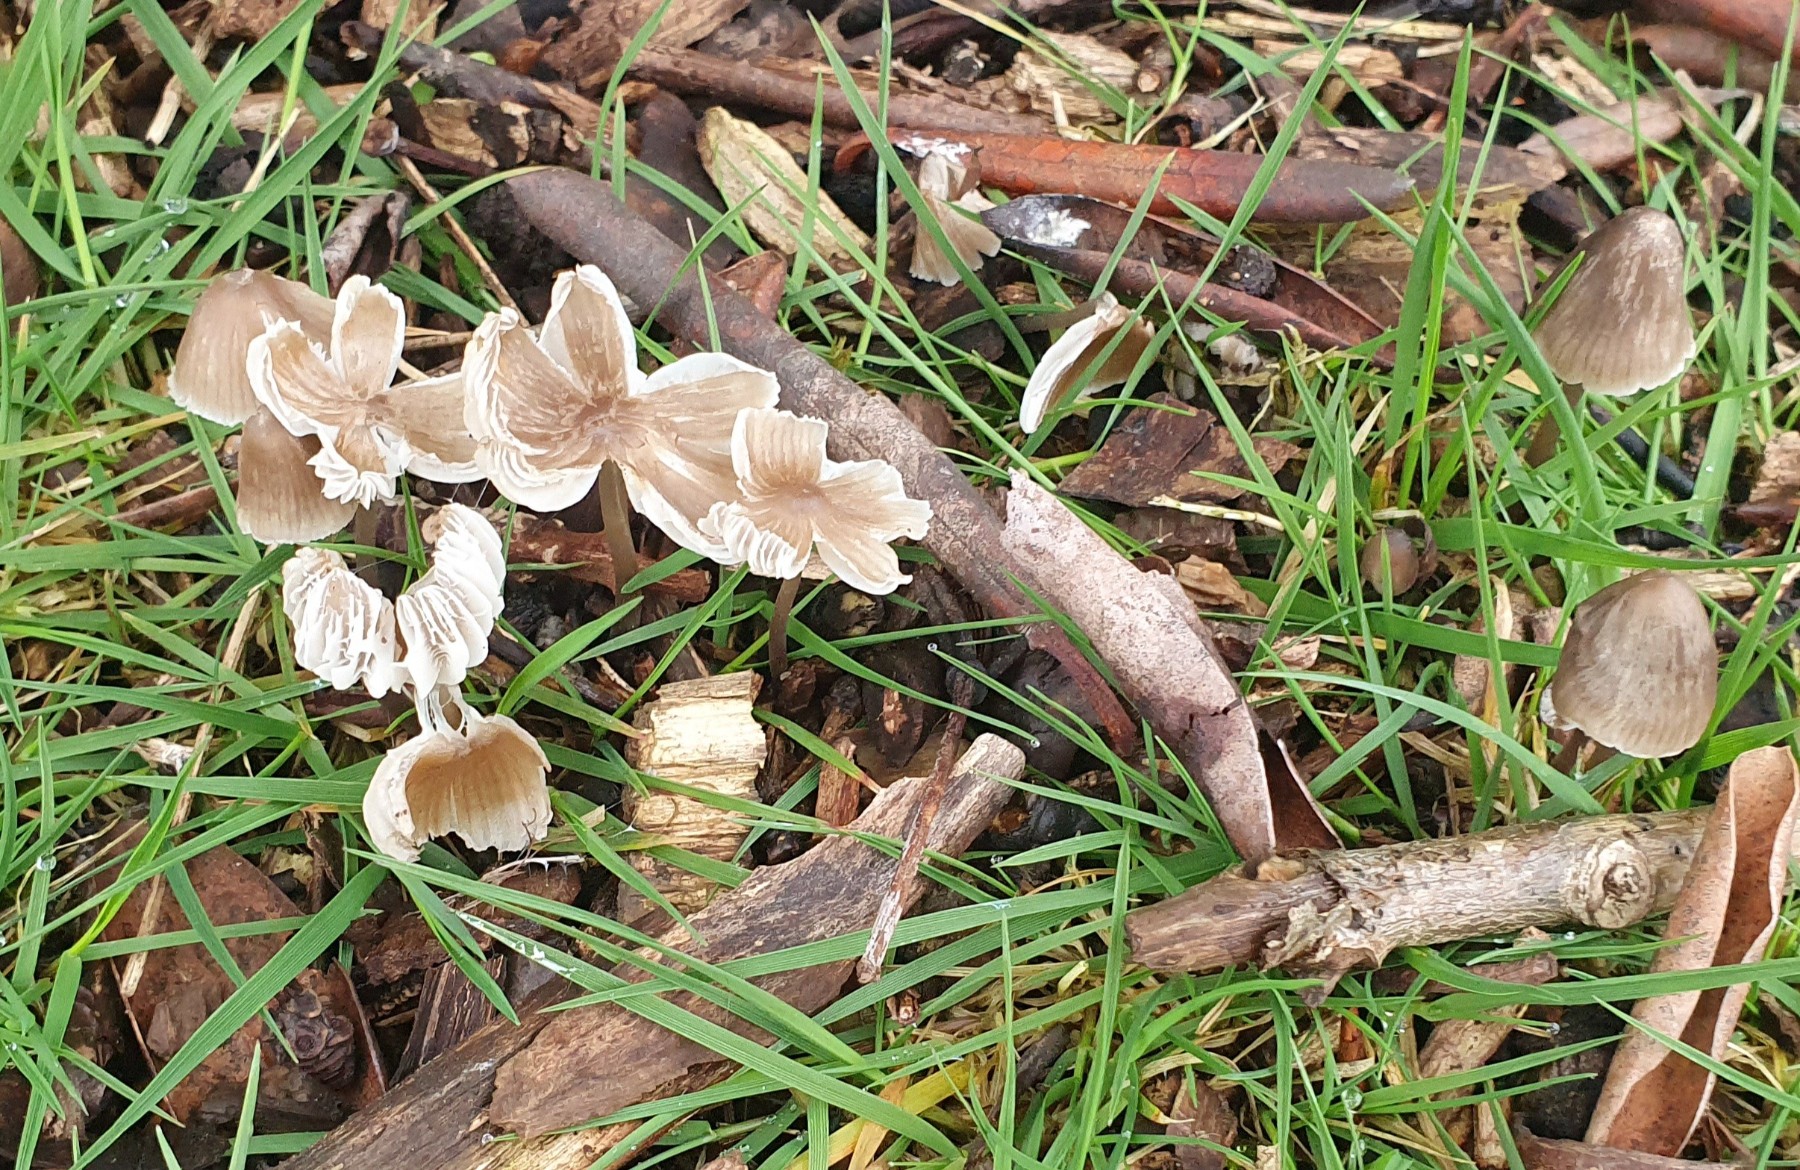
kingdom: Fungi
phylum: Basidiomycota
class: Agaricomycetes
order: Agaricales
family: Mycenaceae
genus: Mycena
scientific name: Mycena leptocephala
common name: klor-huesvamp
